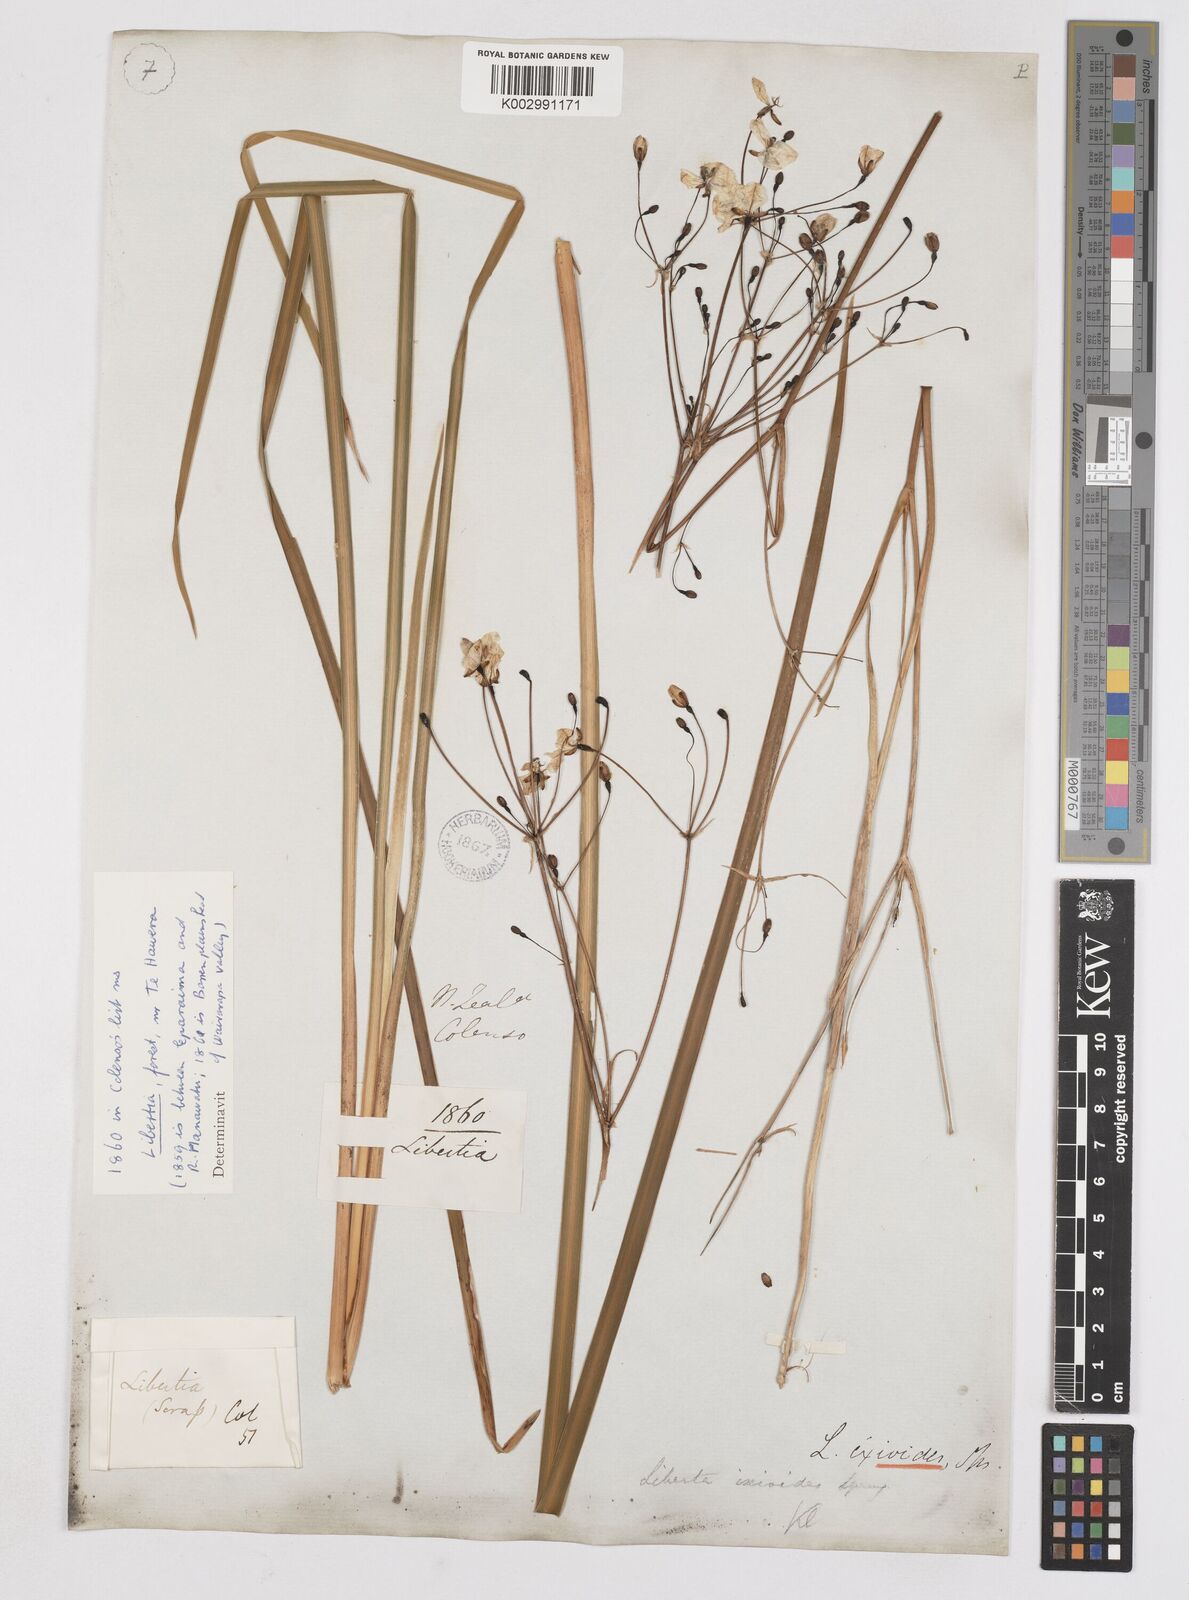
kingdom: Plantae
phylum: Tracheophyta
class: Liliopsida
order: Asparagales
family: Iridaceae
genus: Libertia
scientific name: Libertia ixioides
